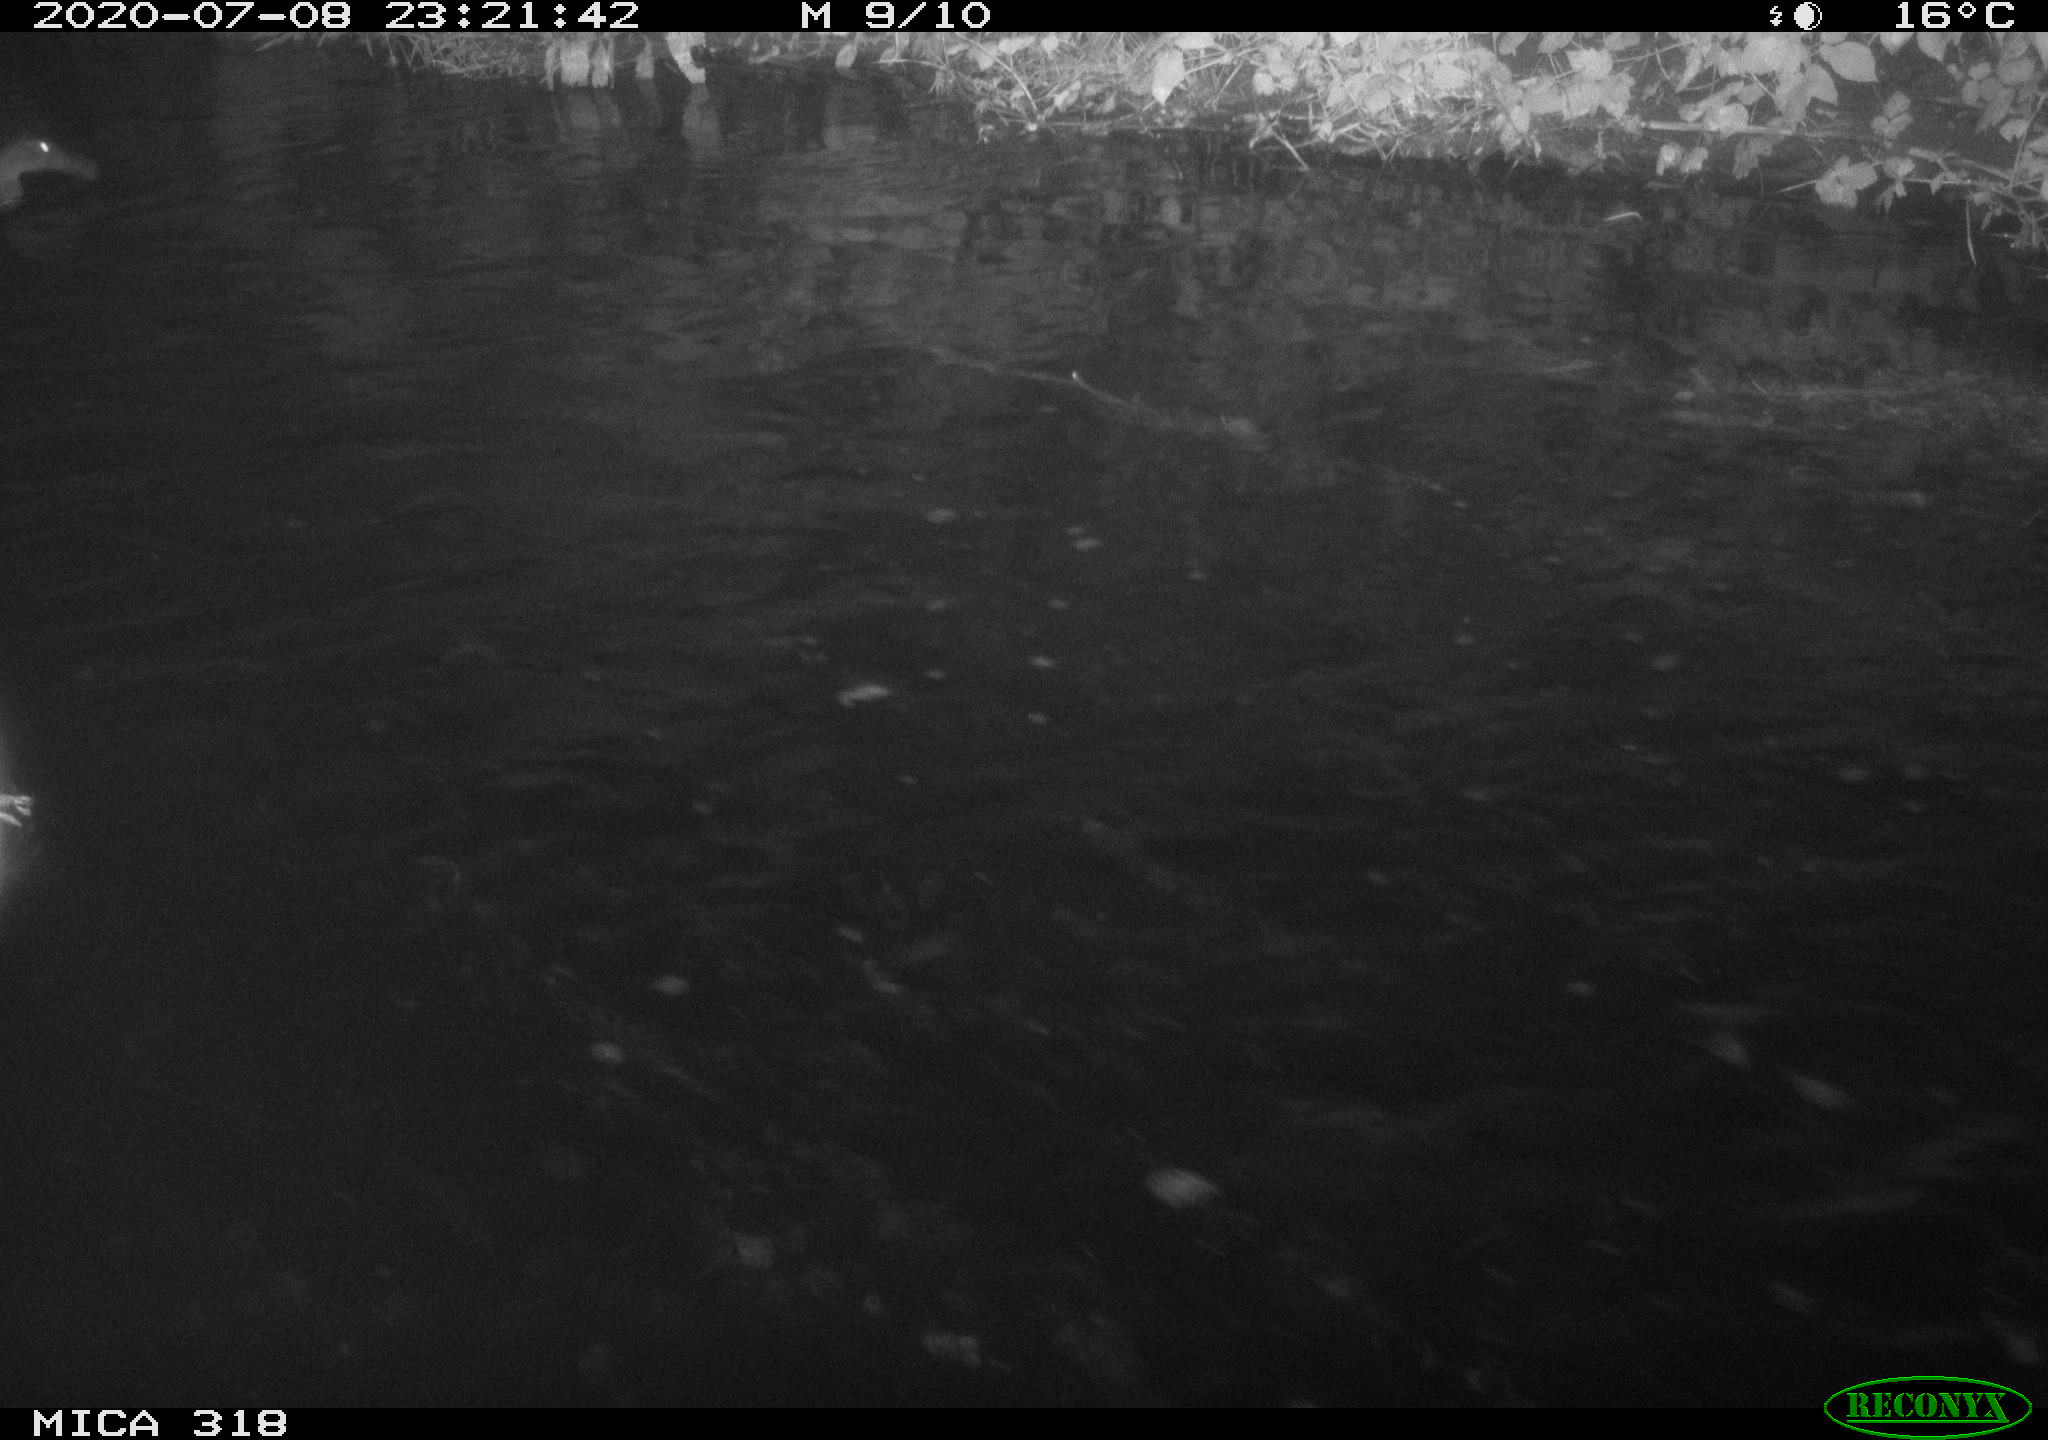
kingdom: Animalia
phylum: Chordata
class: Aves
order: Gruiformes
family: Rallidae
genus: Gallinula
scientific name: Gallinula chloropus
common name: Common moorhen
